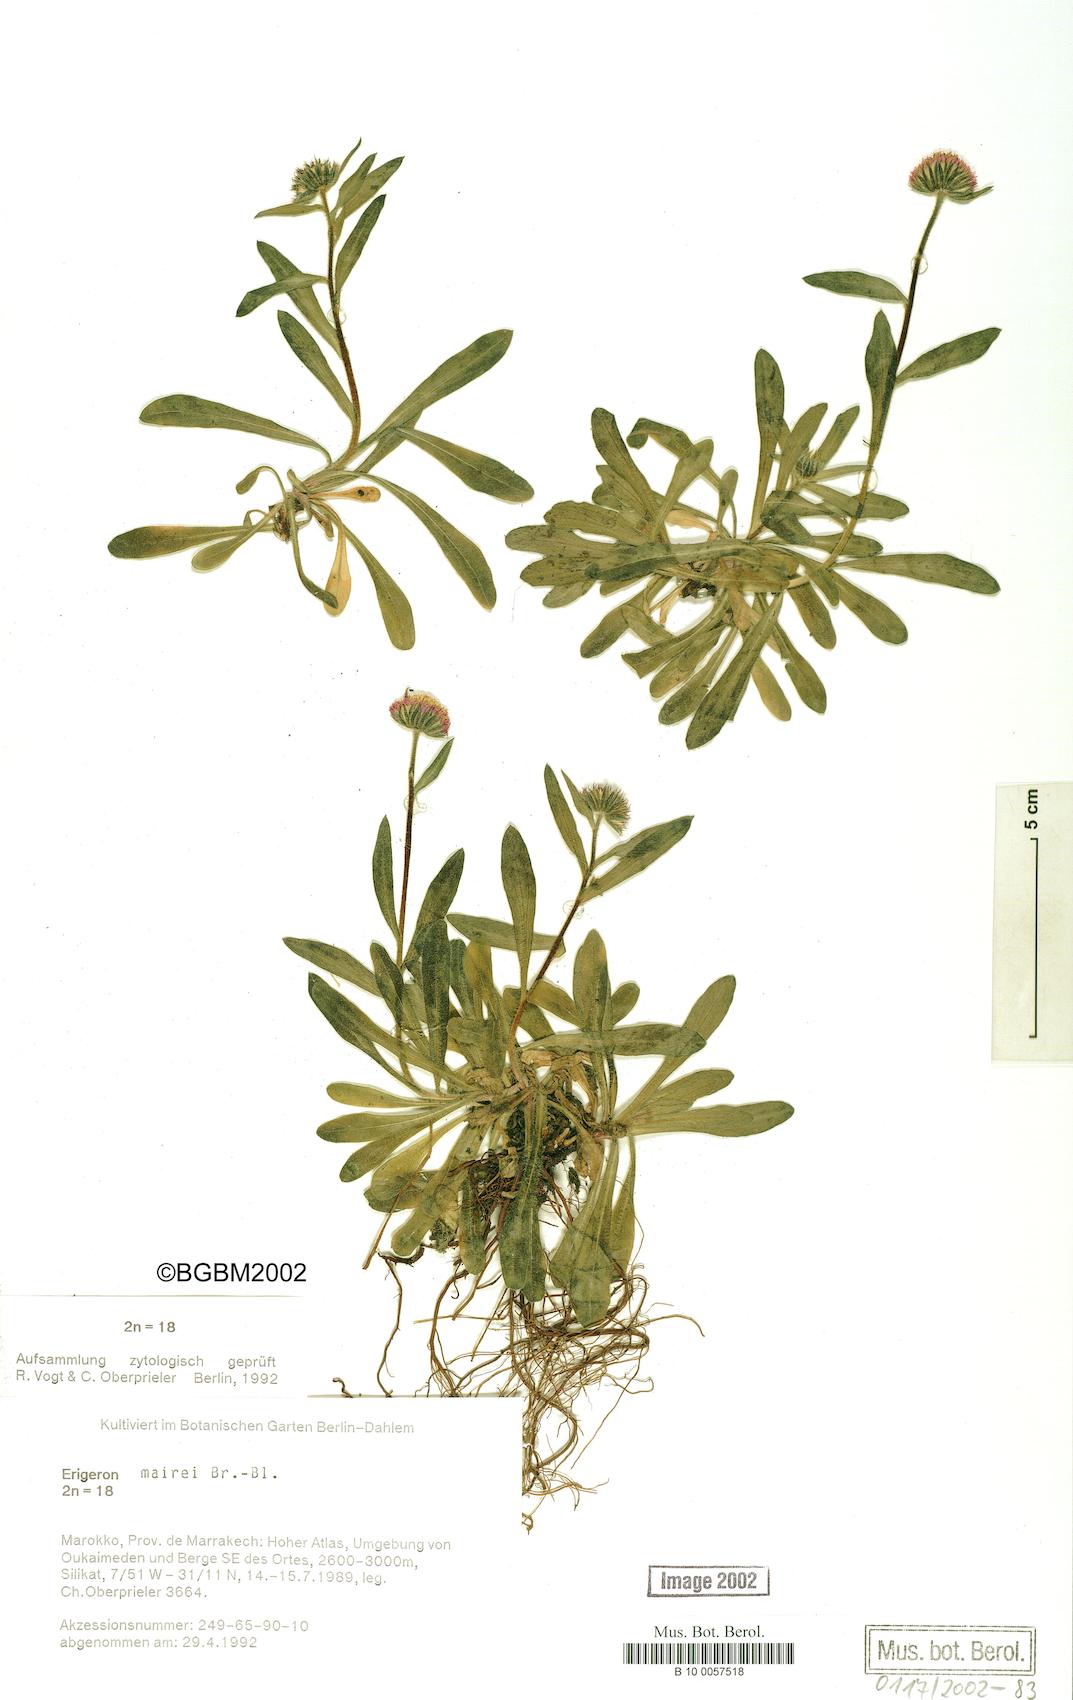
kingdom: Plantae
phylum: Tracheophyta
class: Magnoliopsida
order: Asterales
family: Asteraceae
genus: Erigeron
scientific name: Erigeron granatensis
